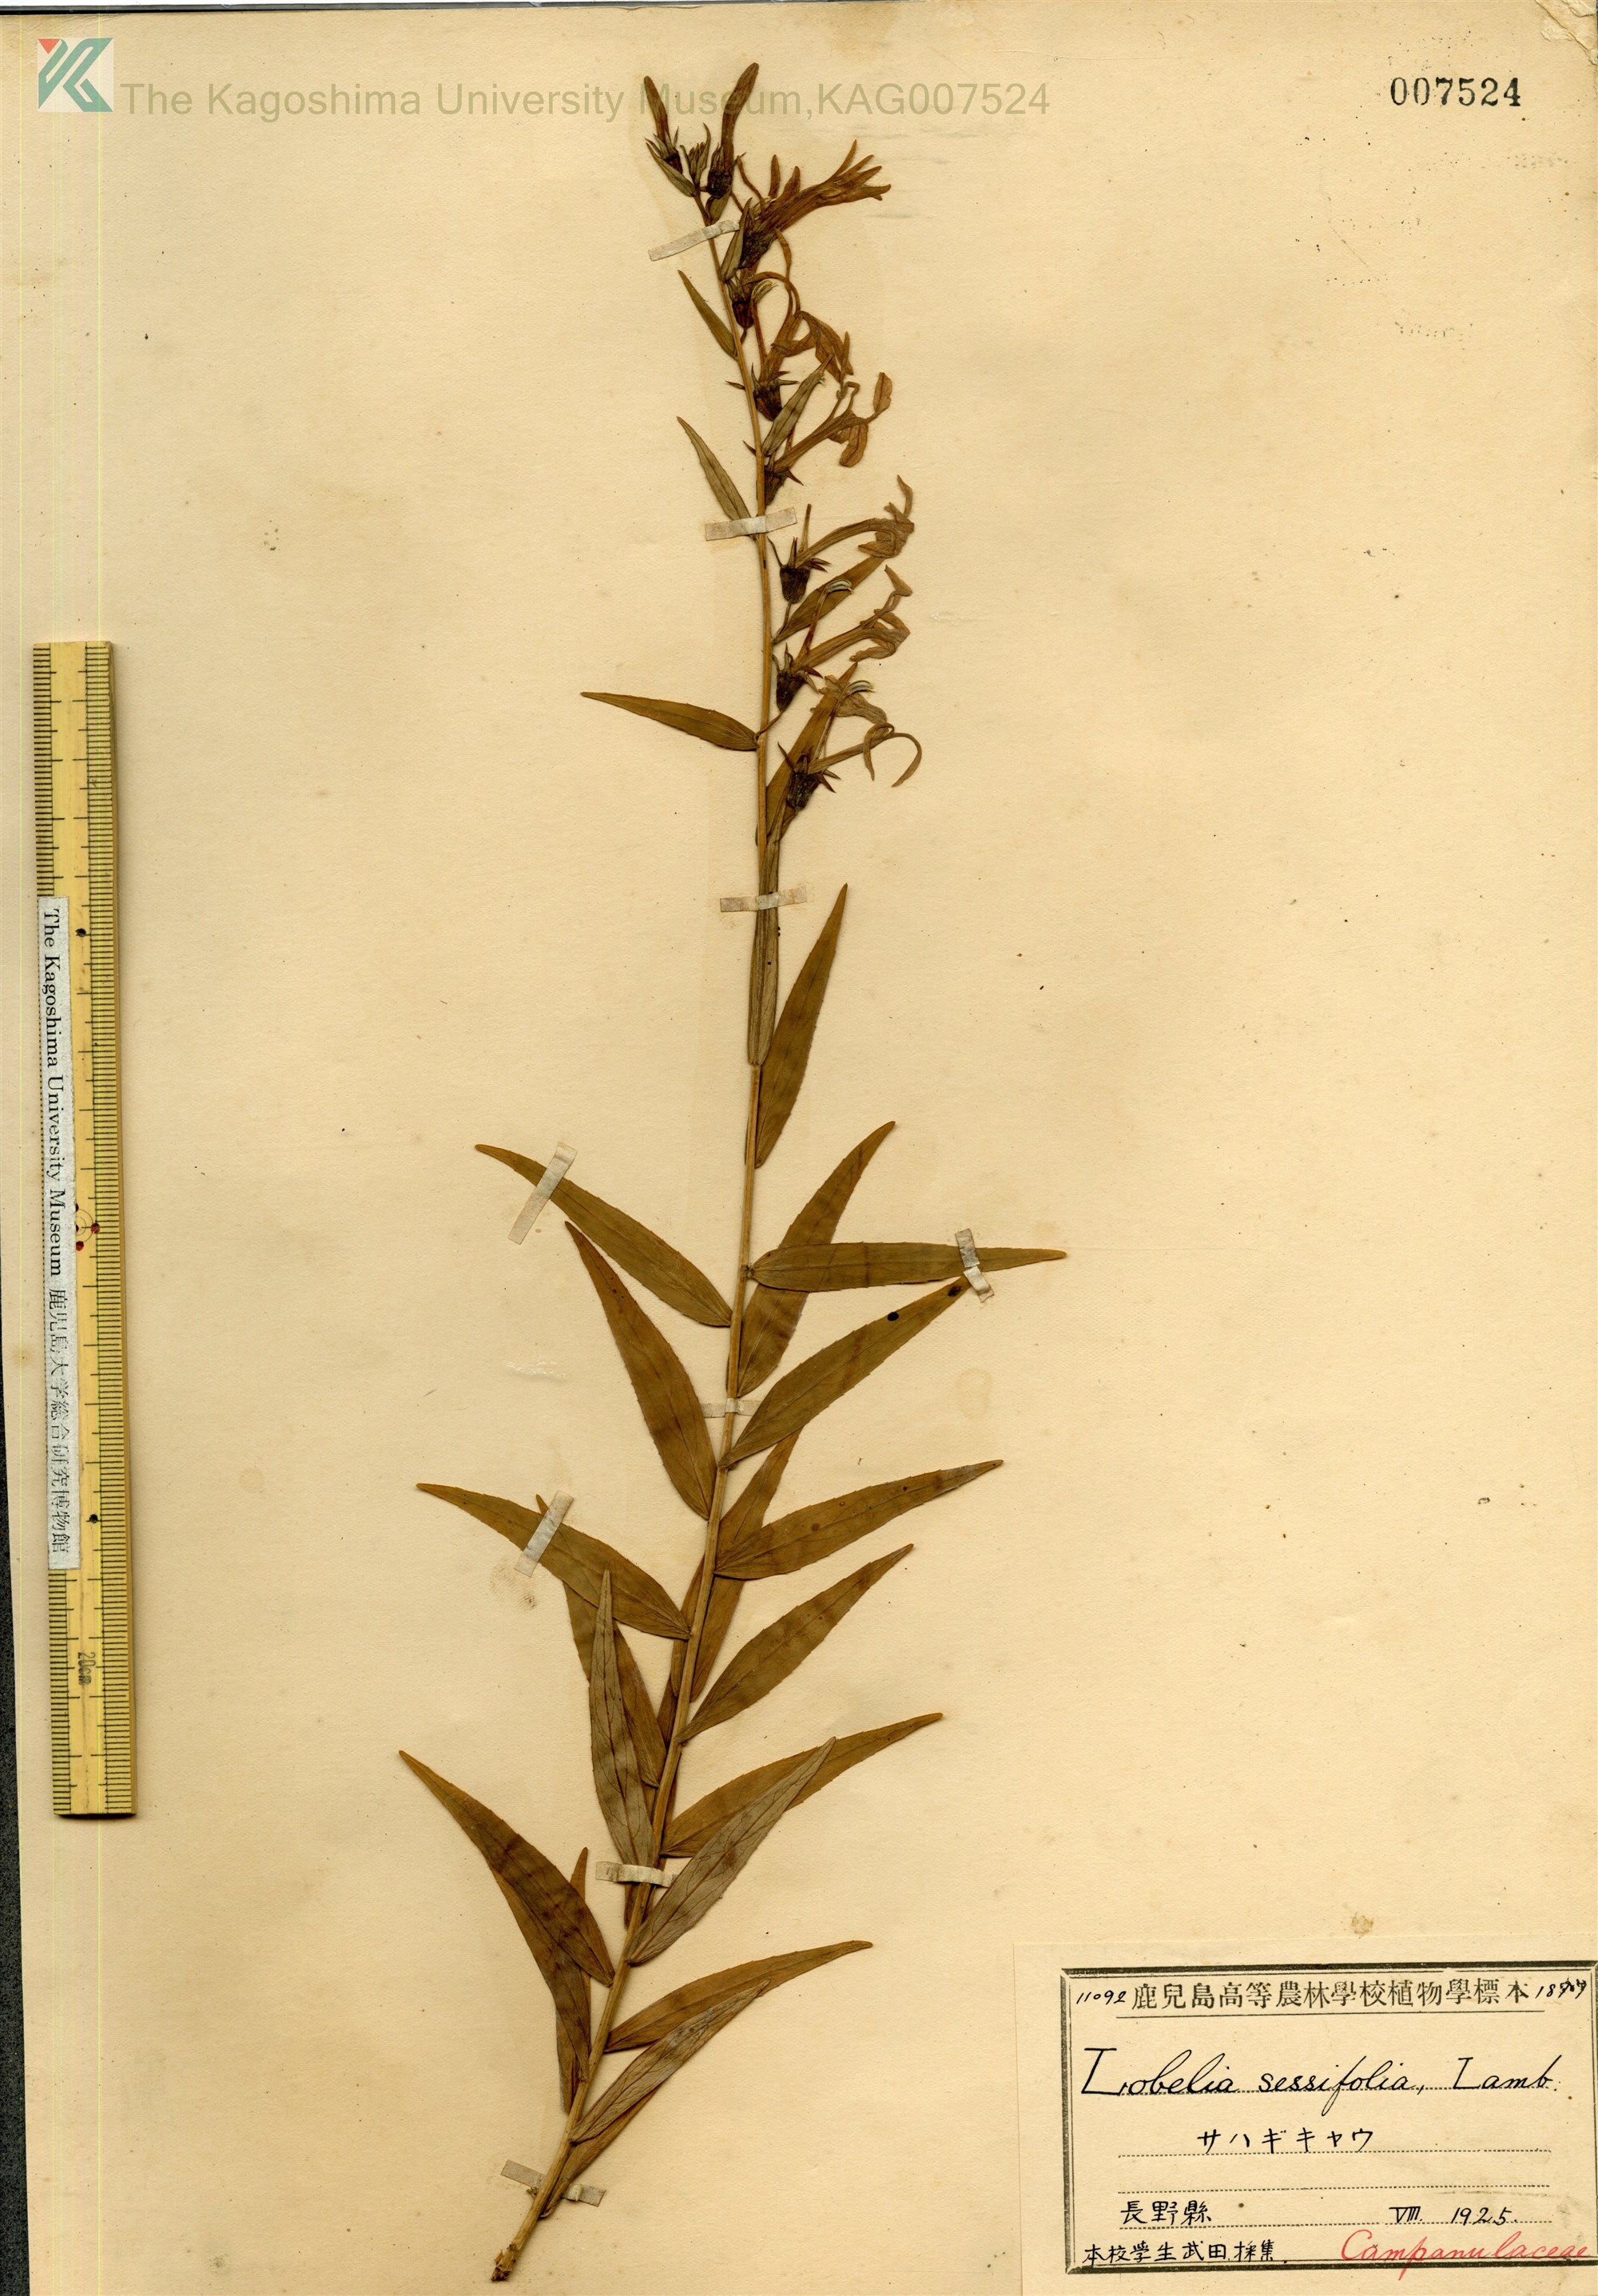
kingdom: Plantae
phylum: Tracheophyta
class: Magnoliopsida
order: Asterales
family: Campanulaceae
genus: Lobelia
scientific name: Lobelia sessilifolia
